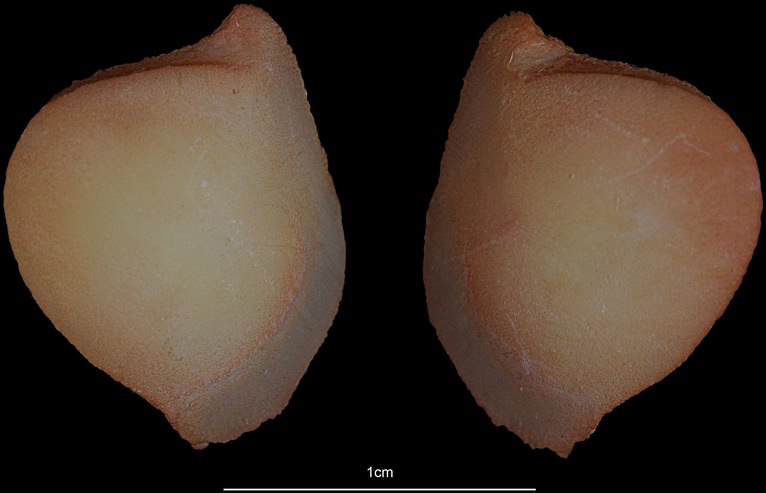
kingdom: Animalia
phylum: Chordata
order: Siluriformes
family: Ariidae
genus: Netuma
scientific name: Netuma thalassina
